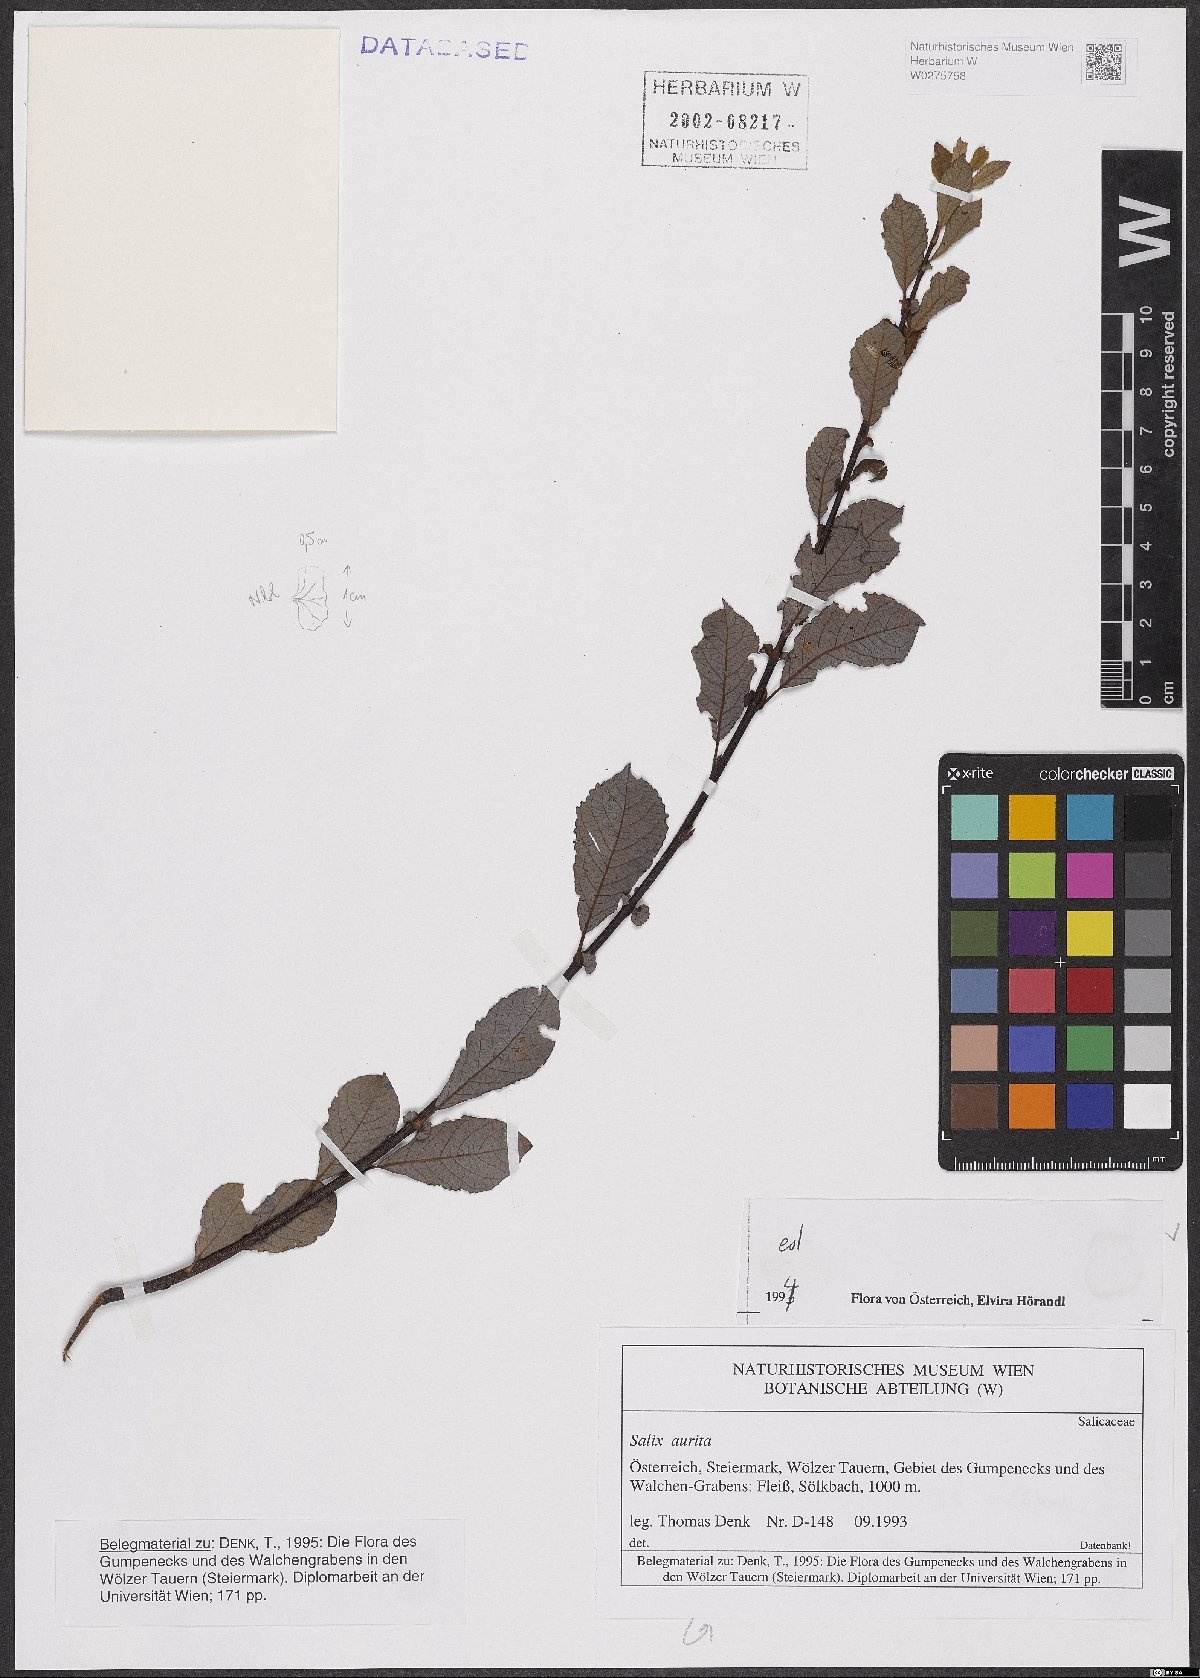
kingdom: Plantae
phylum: Tracheophyta
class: Magnoliopsida
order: Malpighiales
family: Salicaceae
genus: Salix
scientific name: Salix aurita
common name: Eared willow
